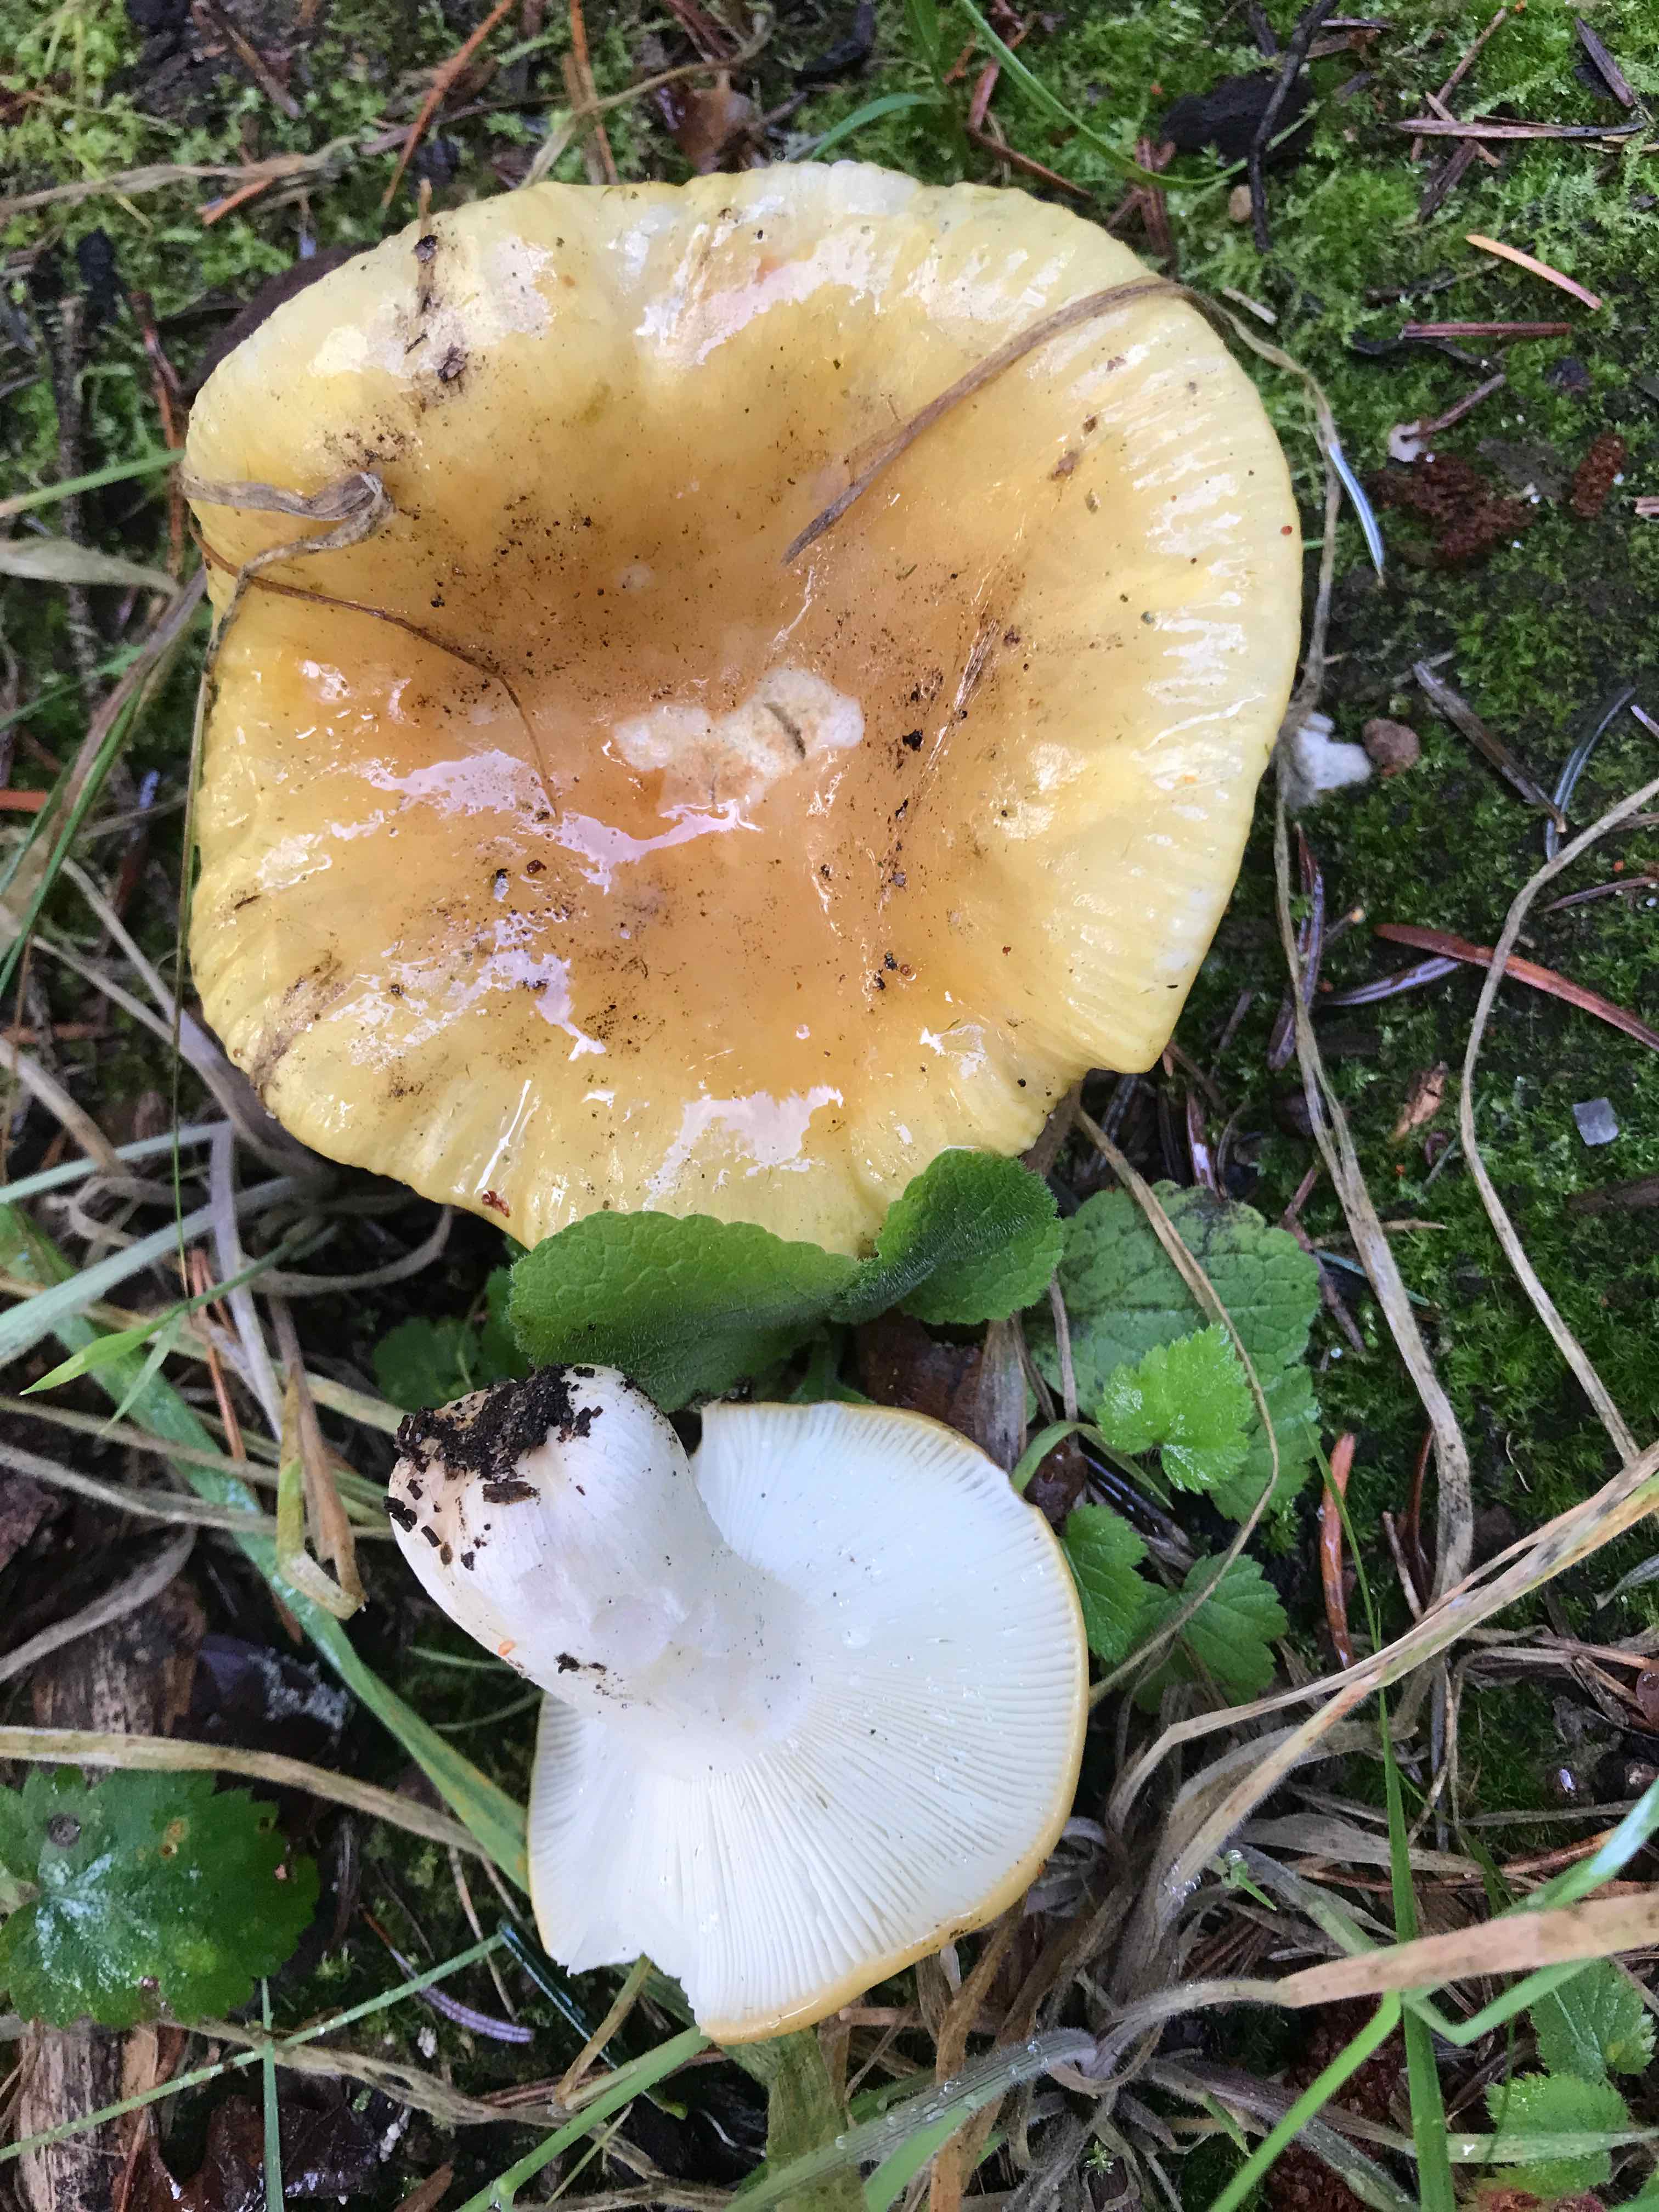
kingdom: Fungi
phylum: Basidiomycota
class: Agaricomycetes
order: Russulales
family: Russulaceae
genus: Russula
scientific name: Russula ochroleuca
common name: okkergul skørhat
